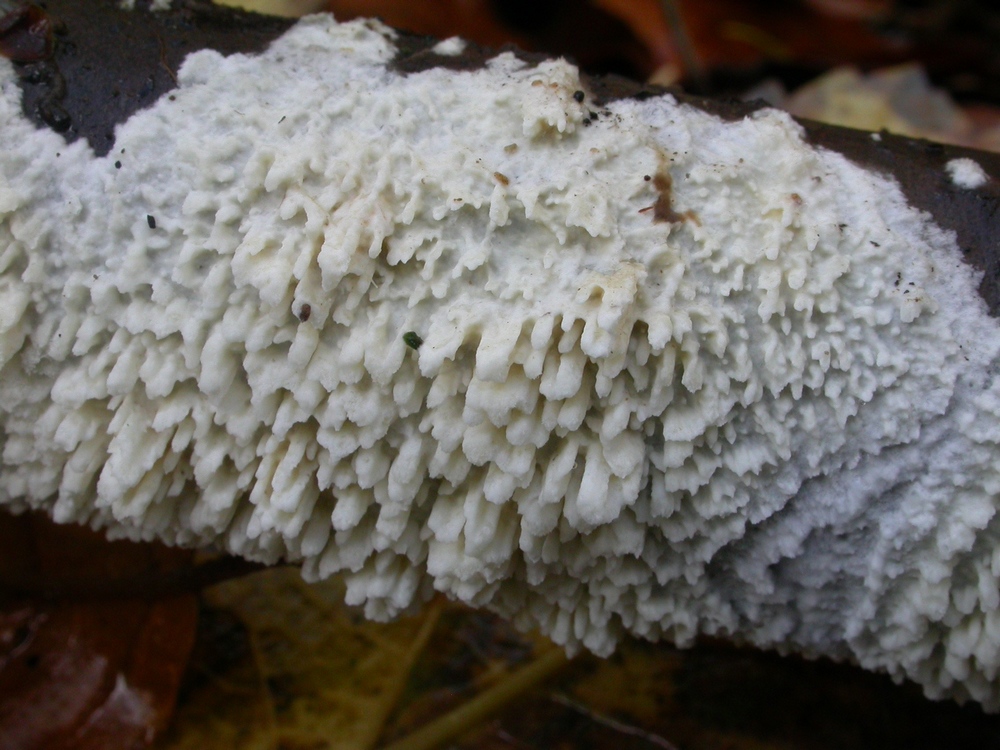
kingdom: Fungi
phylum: Basidiomycota
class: Agaricomycetes
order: Hymenochaetales
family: Schizoporaceae
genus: Xylodon
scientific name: Xylodon radula
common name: grovtandet kalkskind
